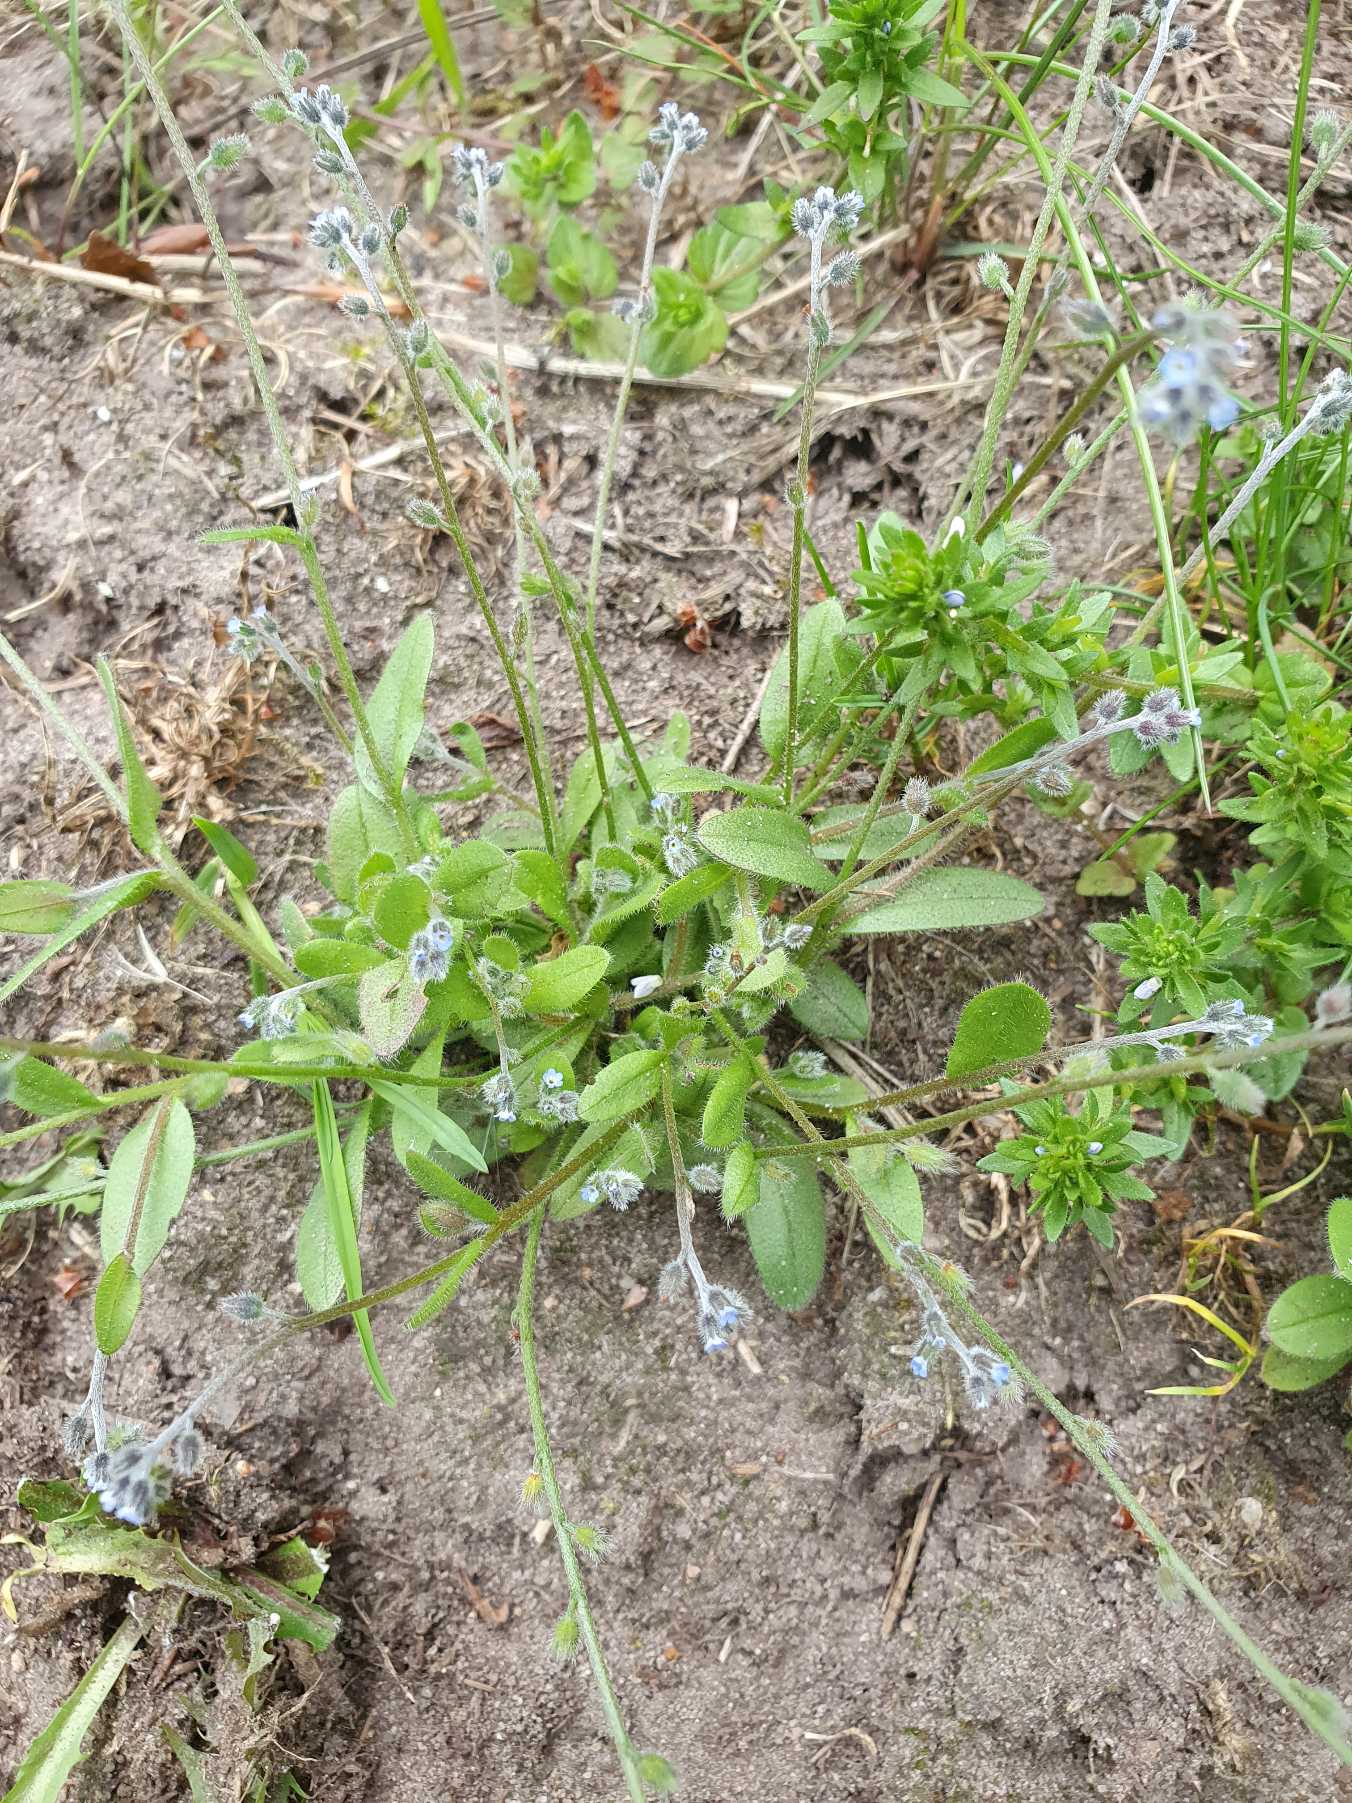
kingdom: Plantae
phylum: Tracheophyta
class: Magnoliopsida
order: Boraginales
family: Boraginaceae
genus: Myosotis
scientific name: Myosotis ramosissima
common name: Bakke-forglemmigej
